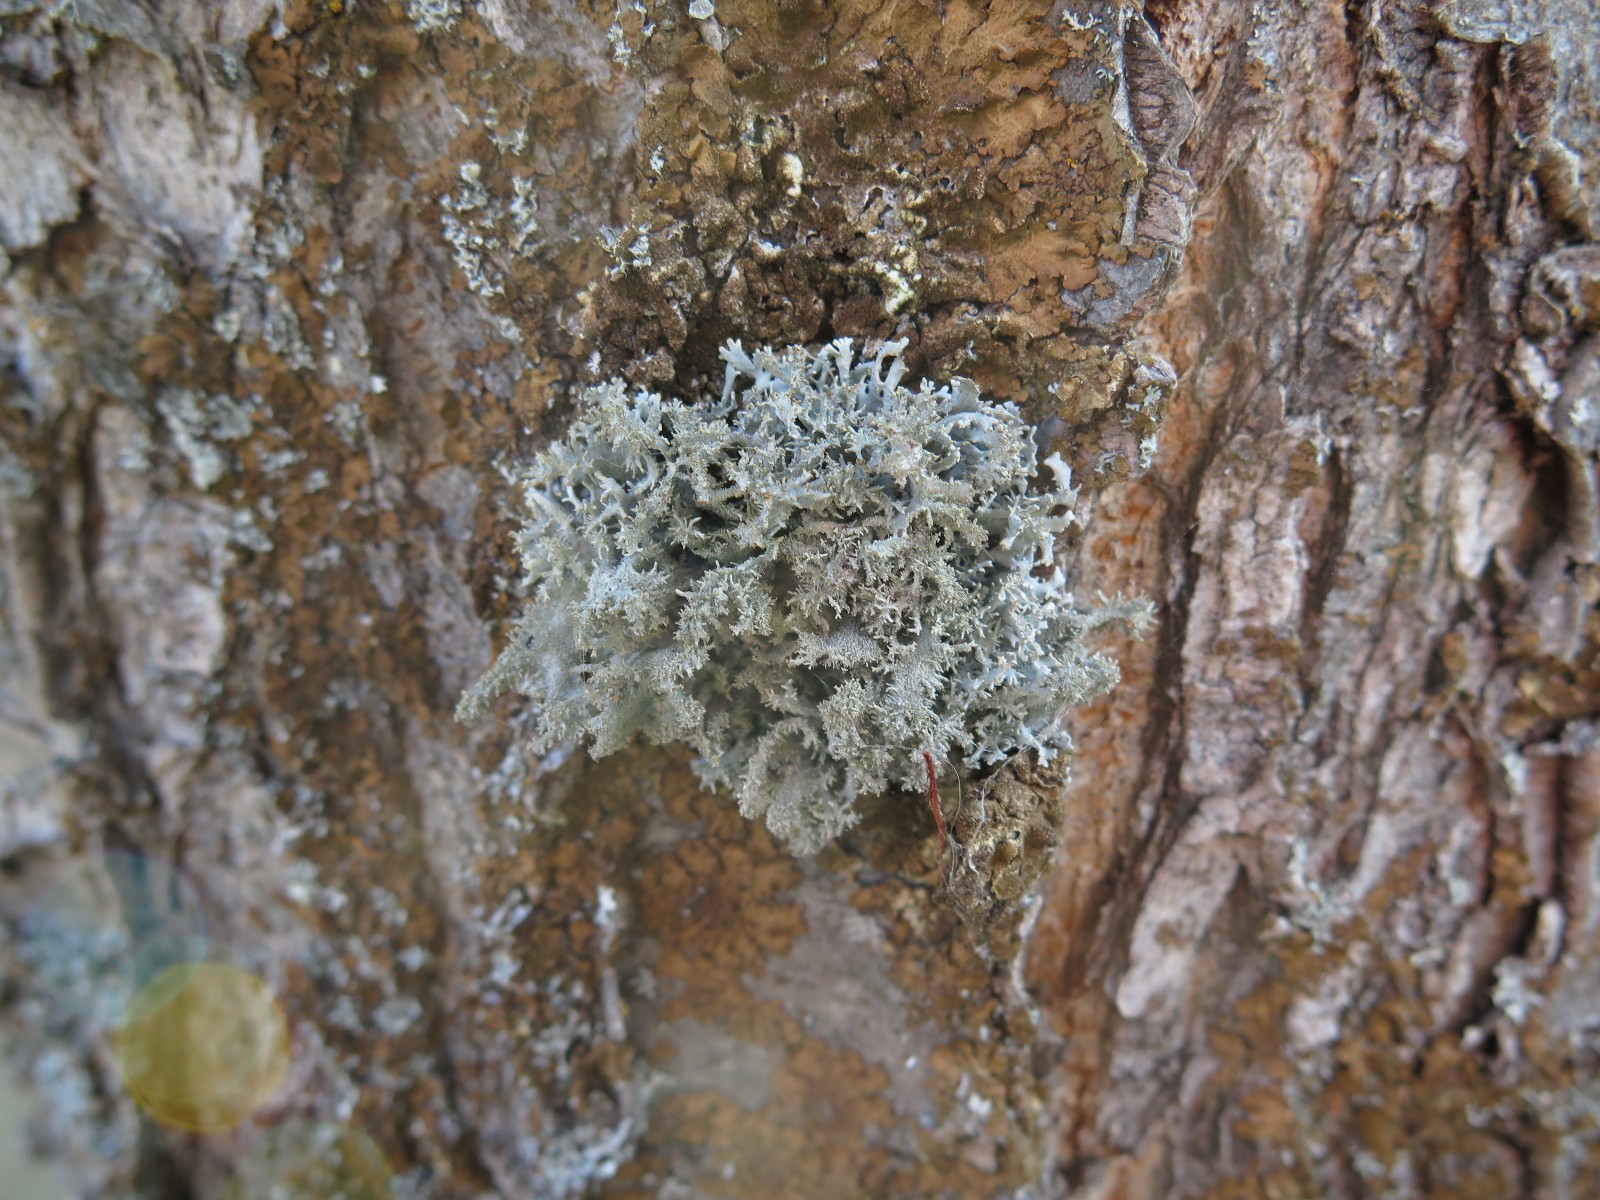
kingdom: Fungi
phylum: Ascomycota
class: Lecanoromycetes
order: Lecanorales
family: Parmeliaceae
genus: Pseudevernia
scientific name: Pseudevernia furfuracea
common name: grå fyrrelav
